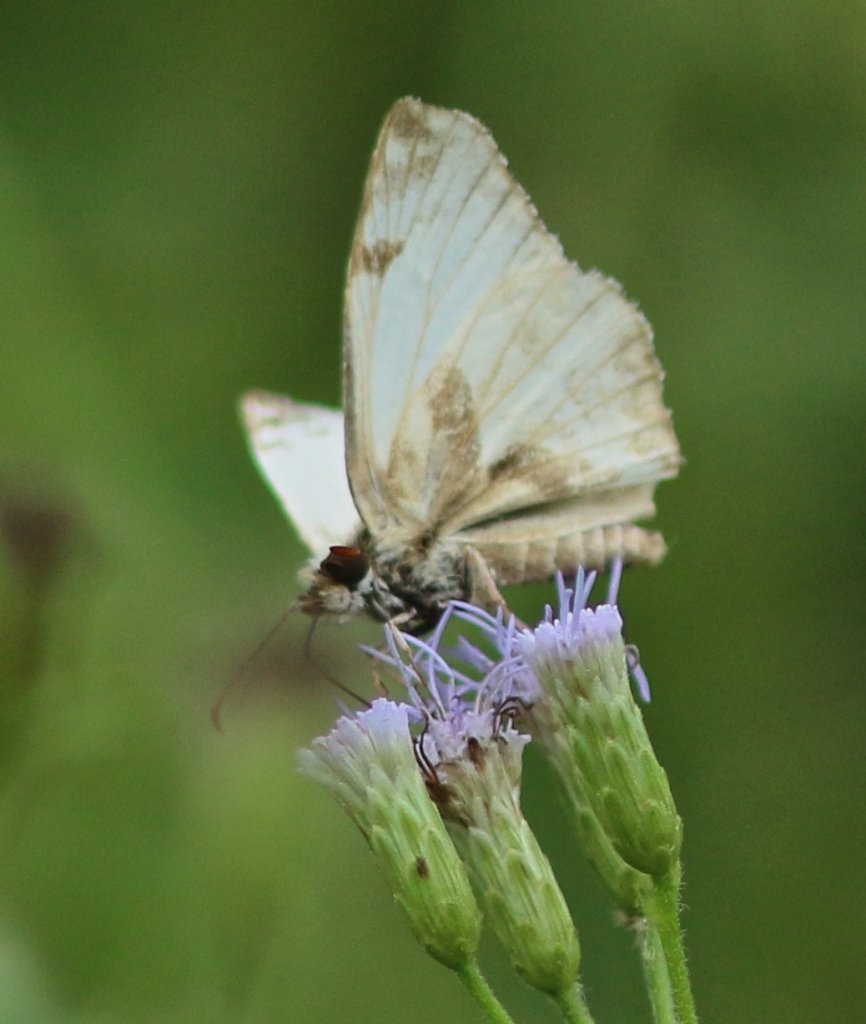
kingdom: Animalia
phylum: Arthropoda
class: Insecta
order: Lepidoptera
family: Hesperiidae
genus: Heliopetes
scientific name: Heliopetes laviana
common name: Laviana White-Skipper
